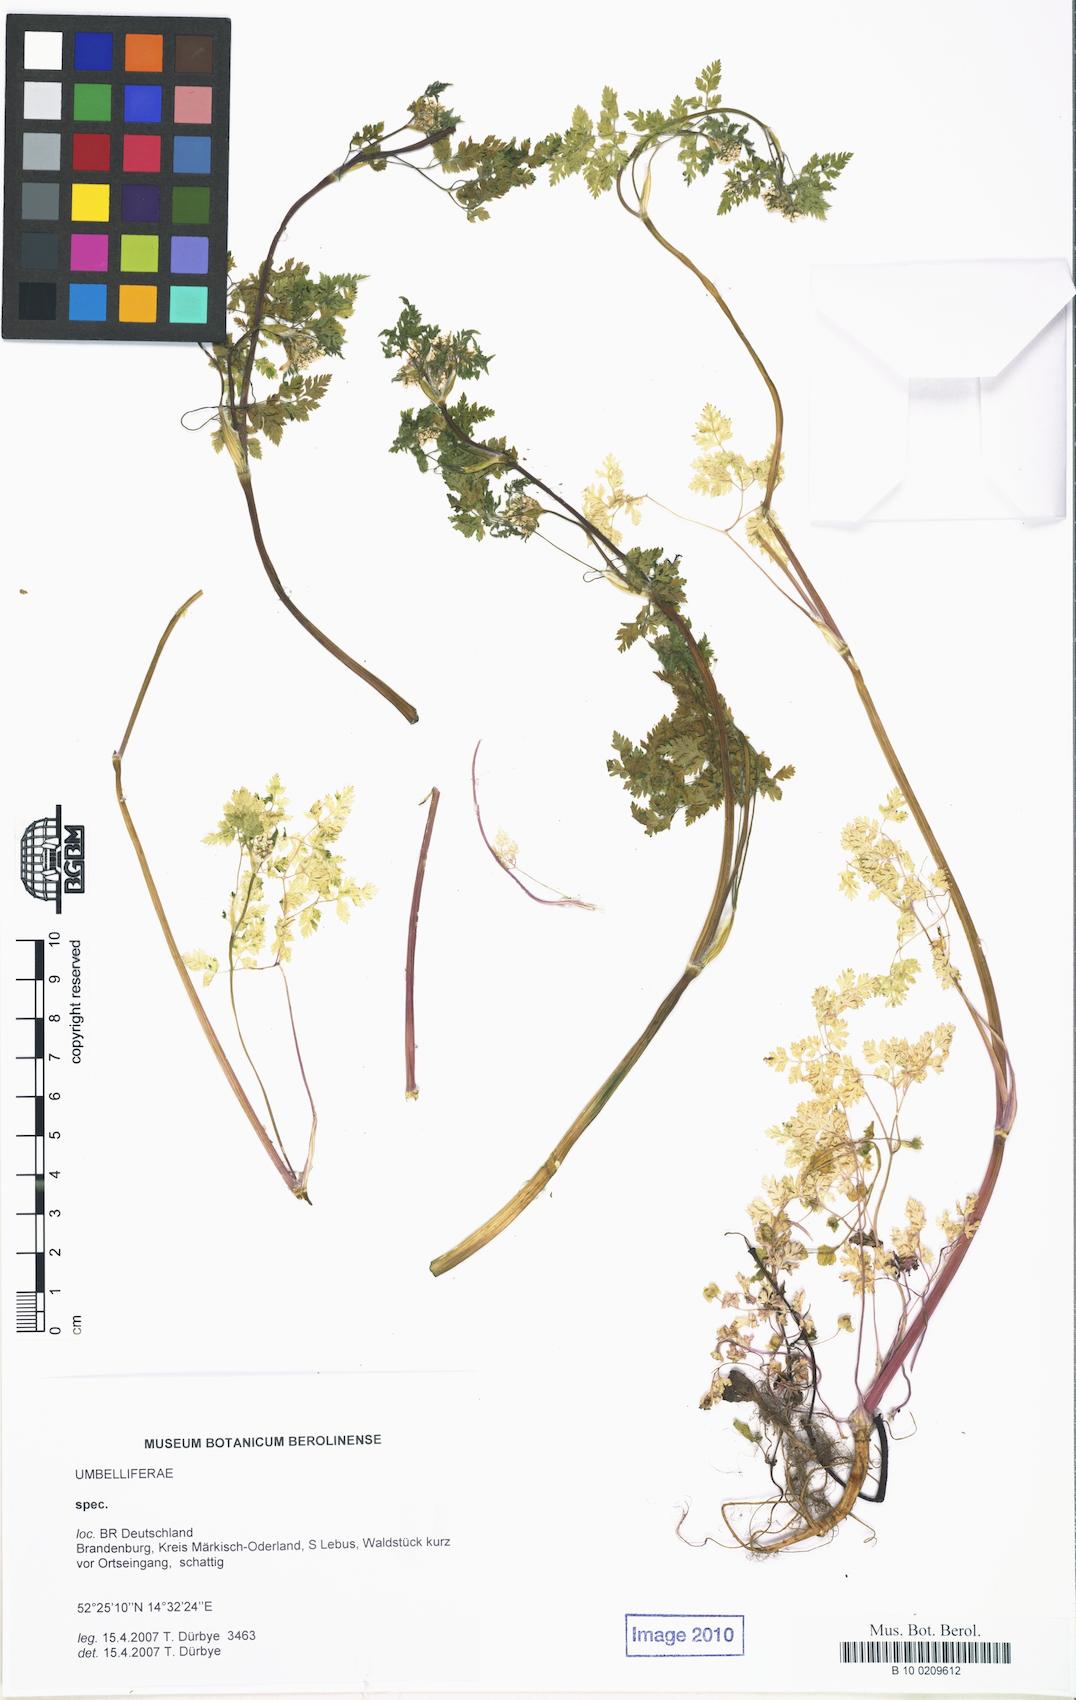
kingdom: Plantae
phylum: Tracheophyta
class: Magnoliopsida
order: Apiales
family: Apiaceae
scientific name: Apiaceae
